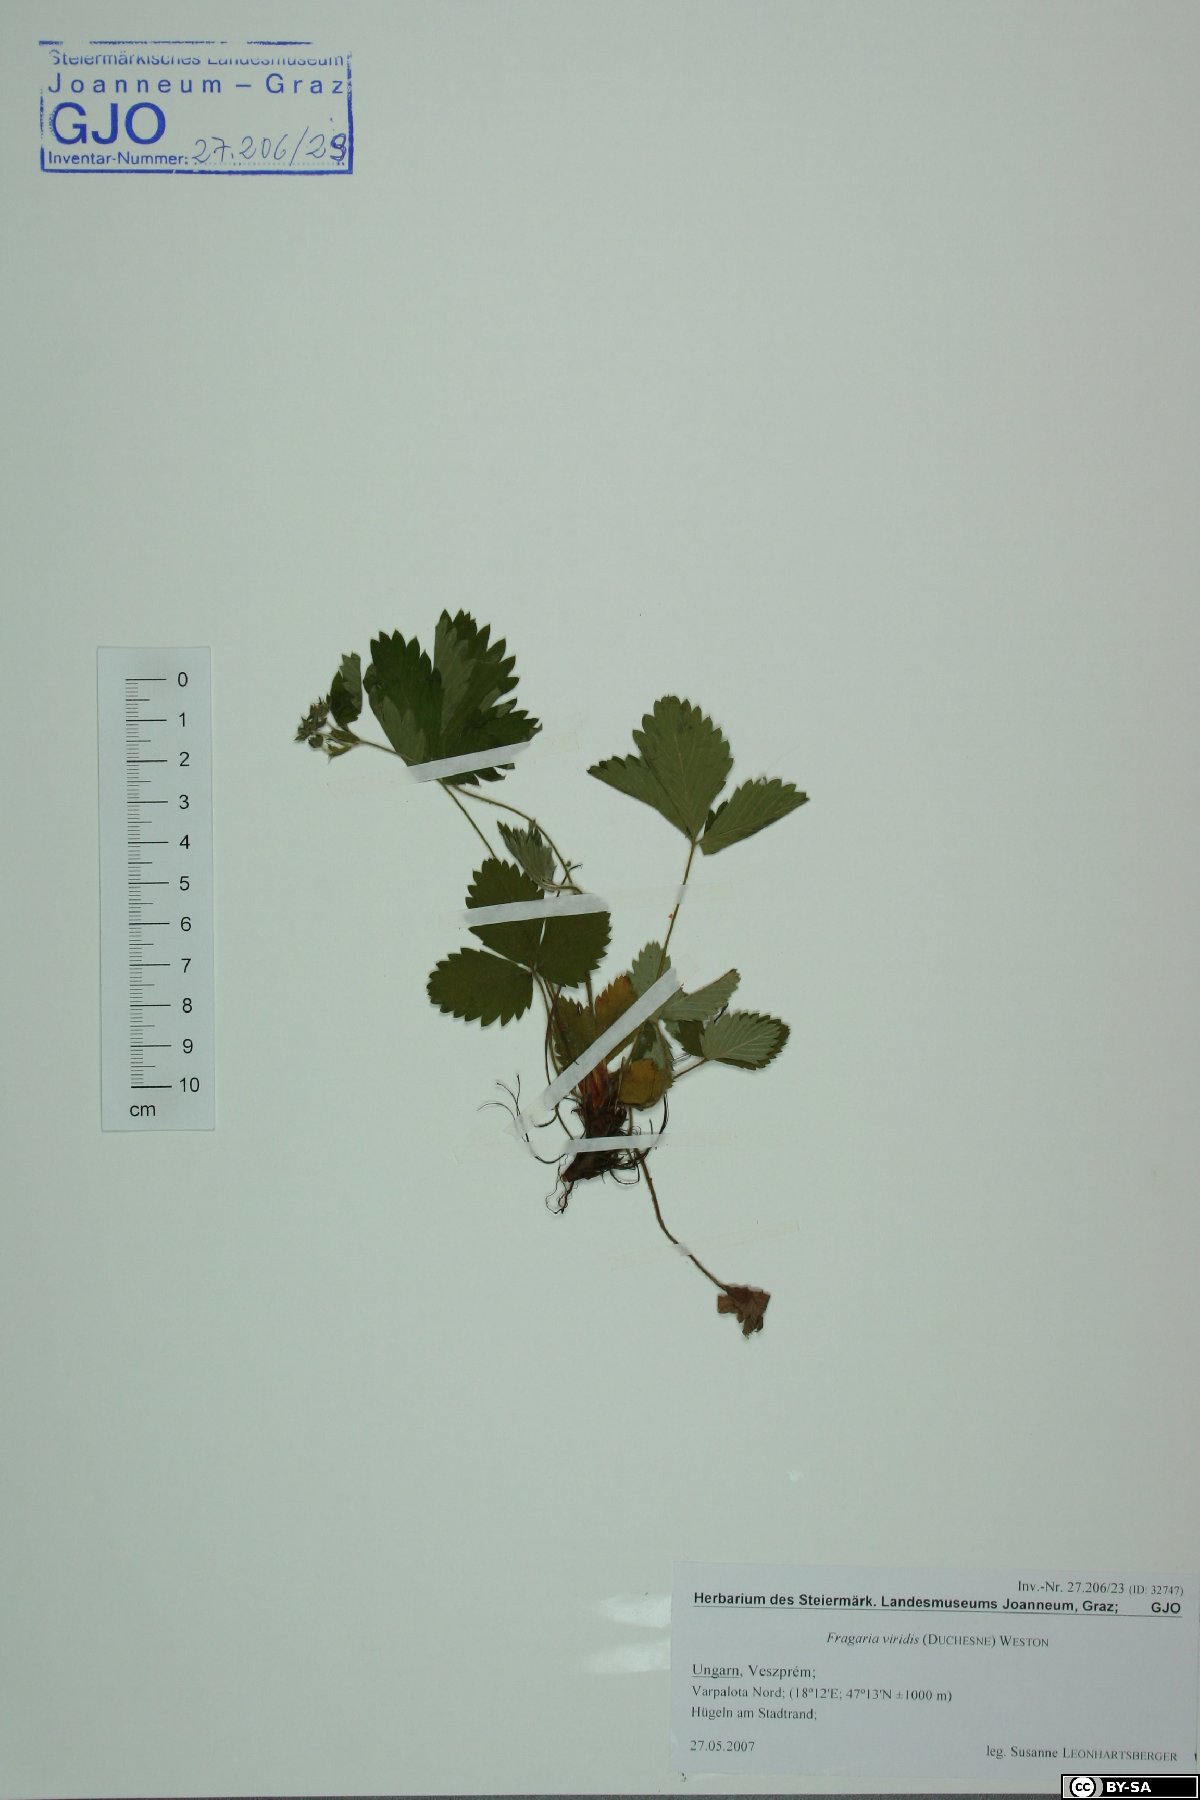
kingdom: Plantae
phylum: Tracheophyta
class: Magnoliopsida
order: Rosales
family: Rosaceae
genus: Fragaria
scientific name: Fragaria viridis
